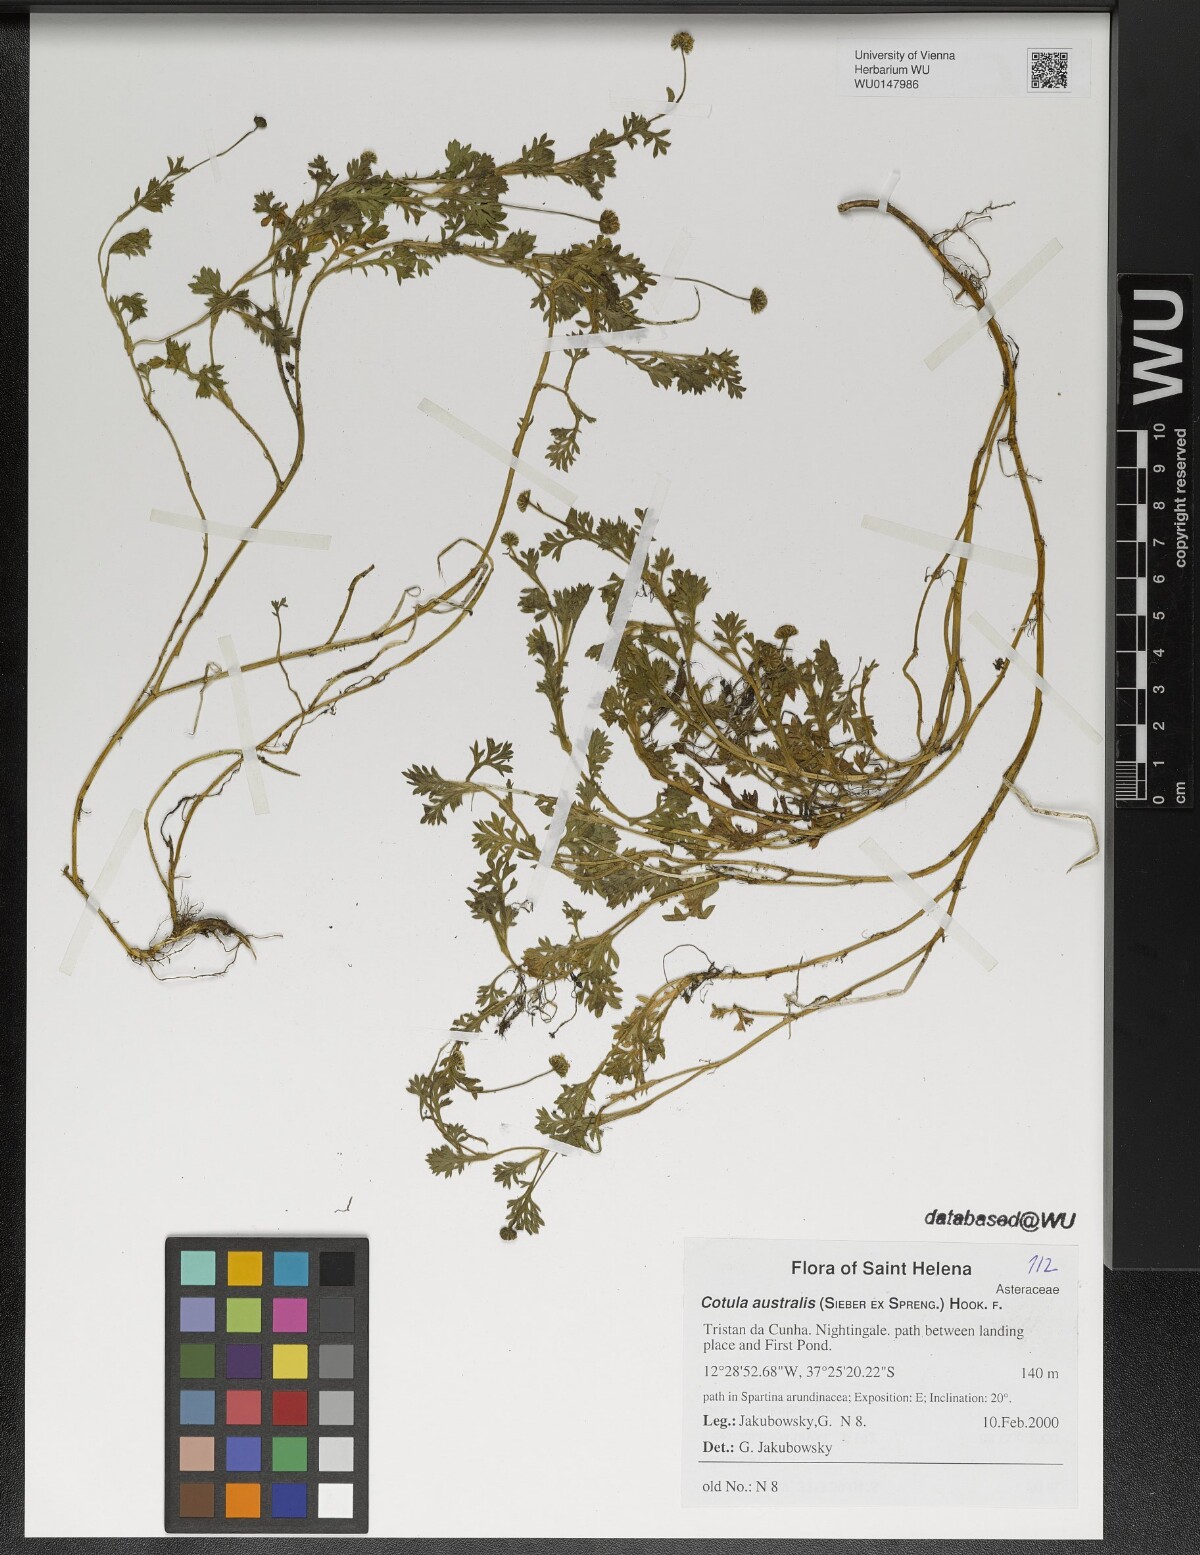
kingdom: Plantae
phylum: Tracheophyta
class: Magnoliopsida
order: Asterales
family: Asteraceae
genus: Cotula
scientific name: Cotula australis
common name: Australian waterbuttons
